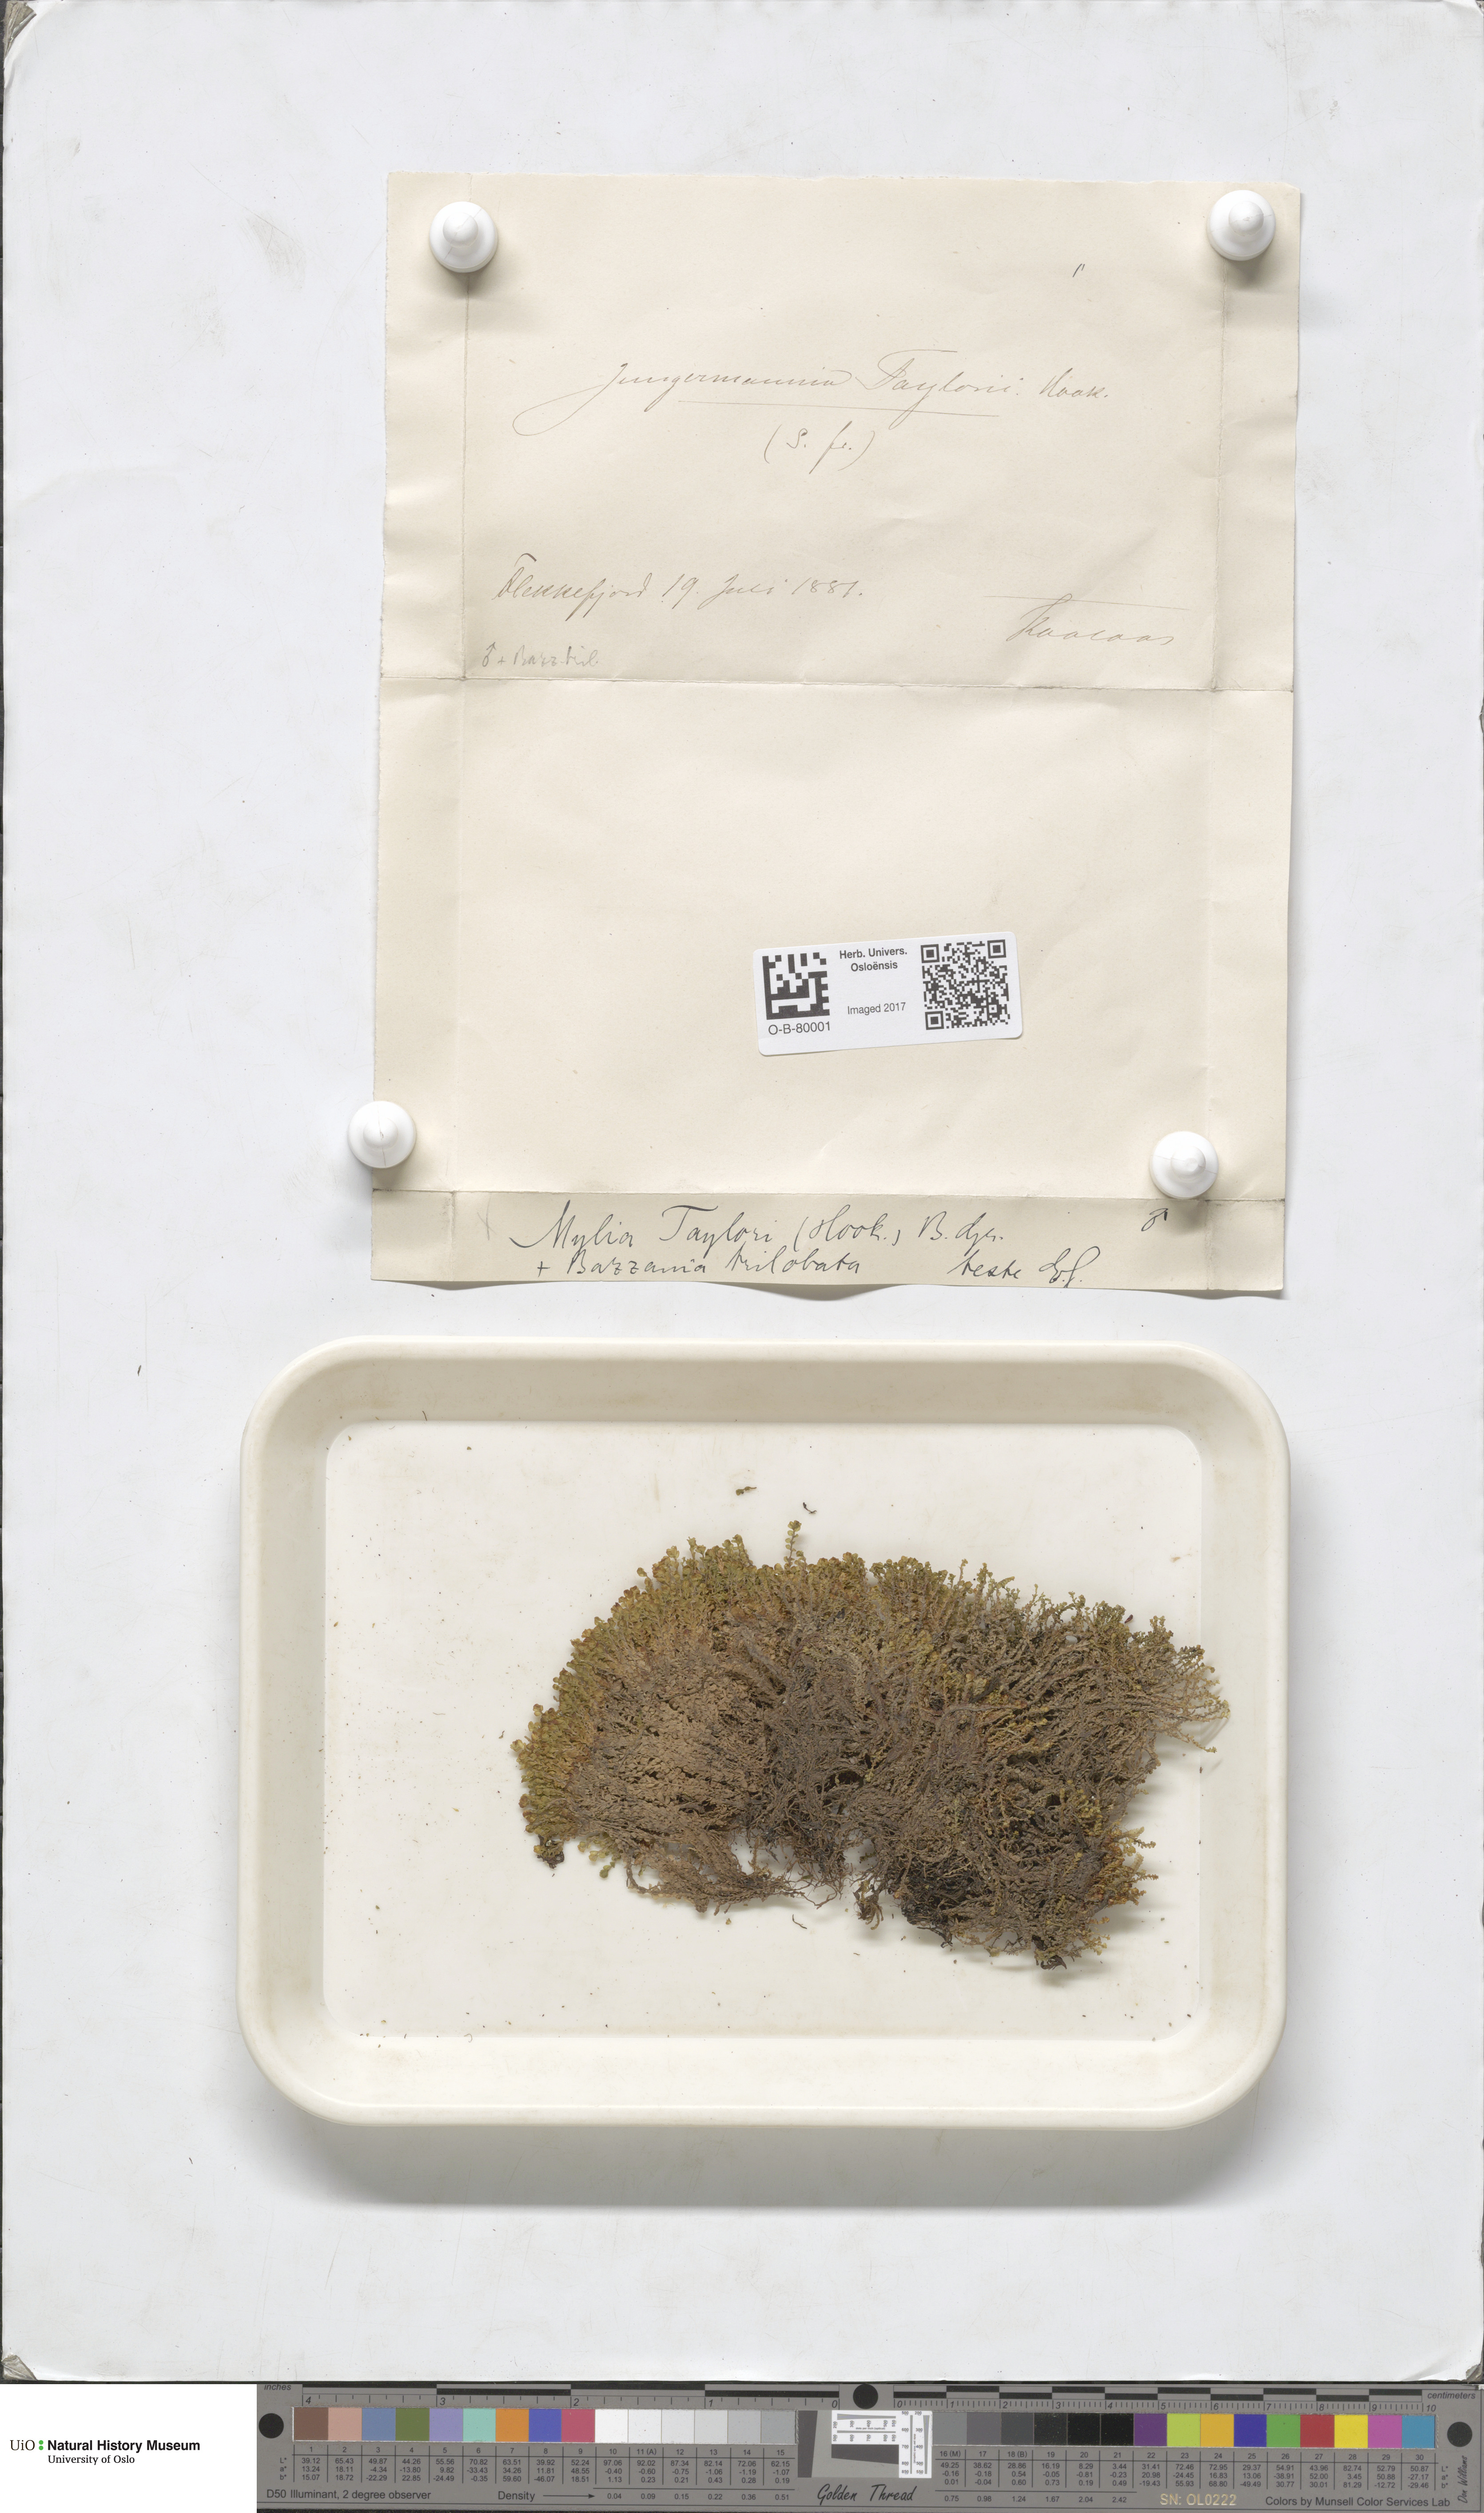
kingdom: Plantae
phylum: Marchantiophyta
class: Jungermanniopsida
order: Jungermanniales
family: Myliaceae
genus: Mylia
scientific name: Mylia taylorii
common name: Taylor s flapwort
